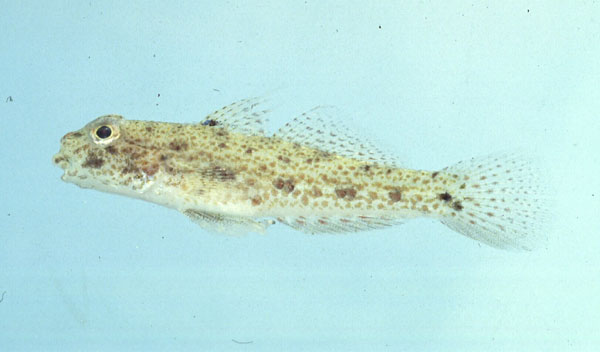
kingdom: Animalia
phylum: Chordata
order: Perciformes
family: Gobiidae
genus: Exyrias
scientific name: Exyrias belissimus
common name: Mud reef-goby
